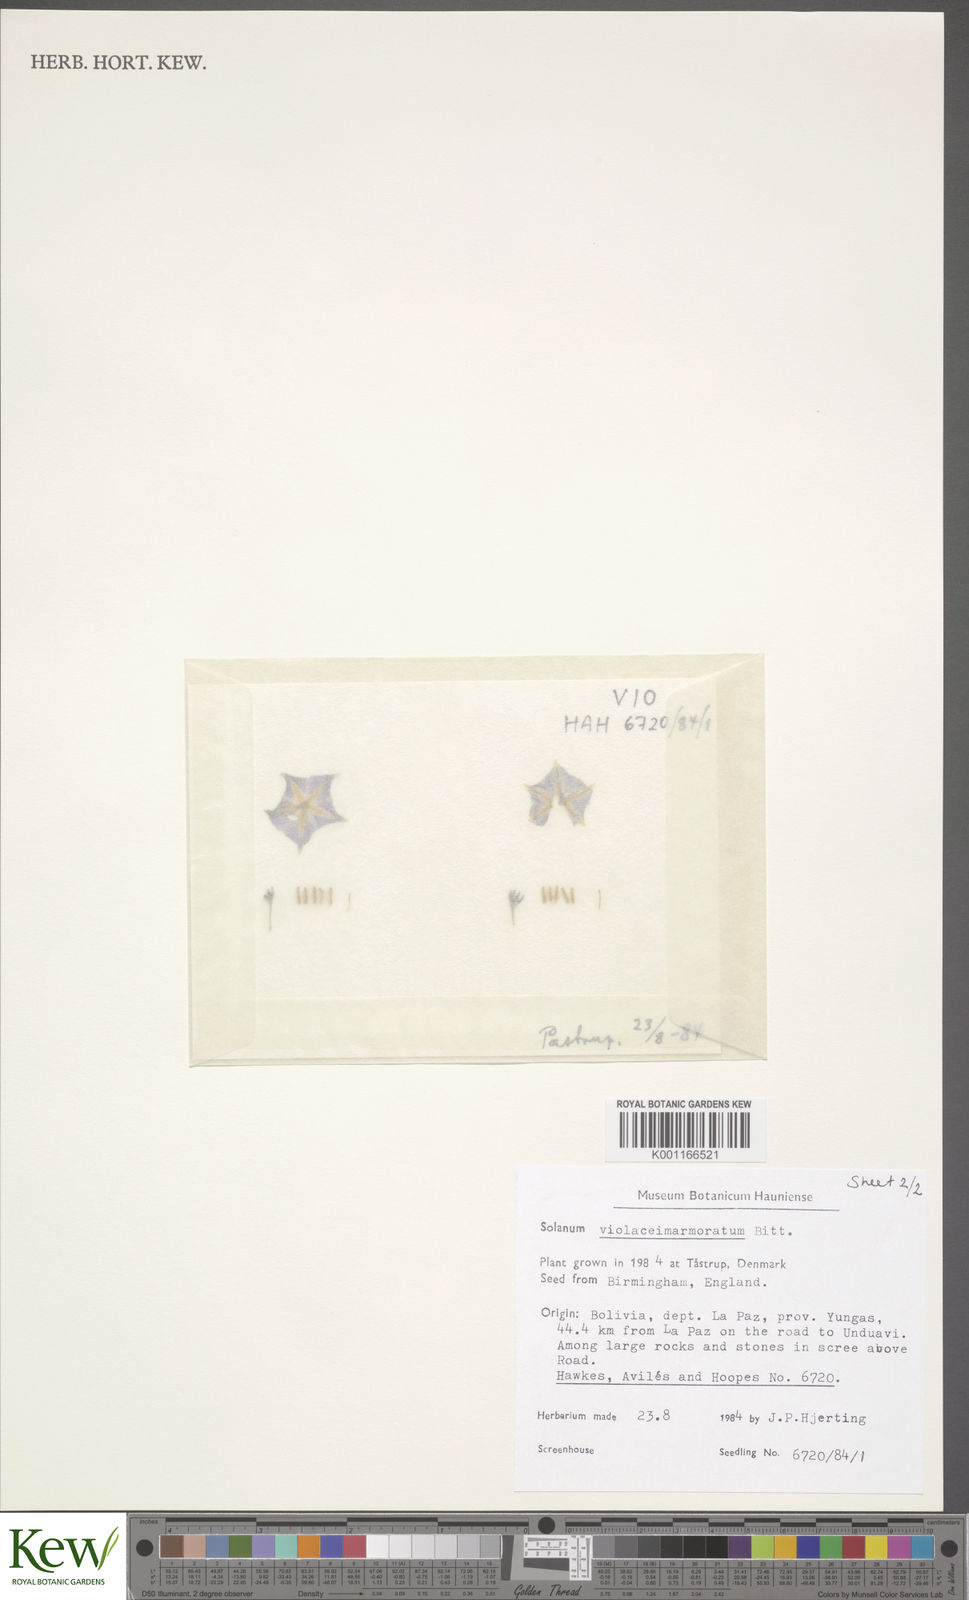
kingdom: Plantae
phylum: Tracheophyta
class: Magnoliopsida
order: Solanales
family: Solanaceae
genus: Solanum
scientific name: Solanum violaceimarmoratum
